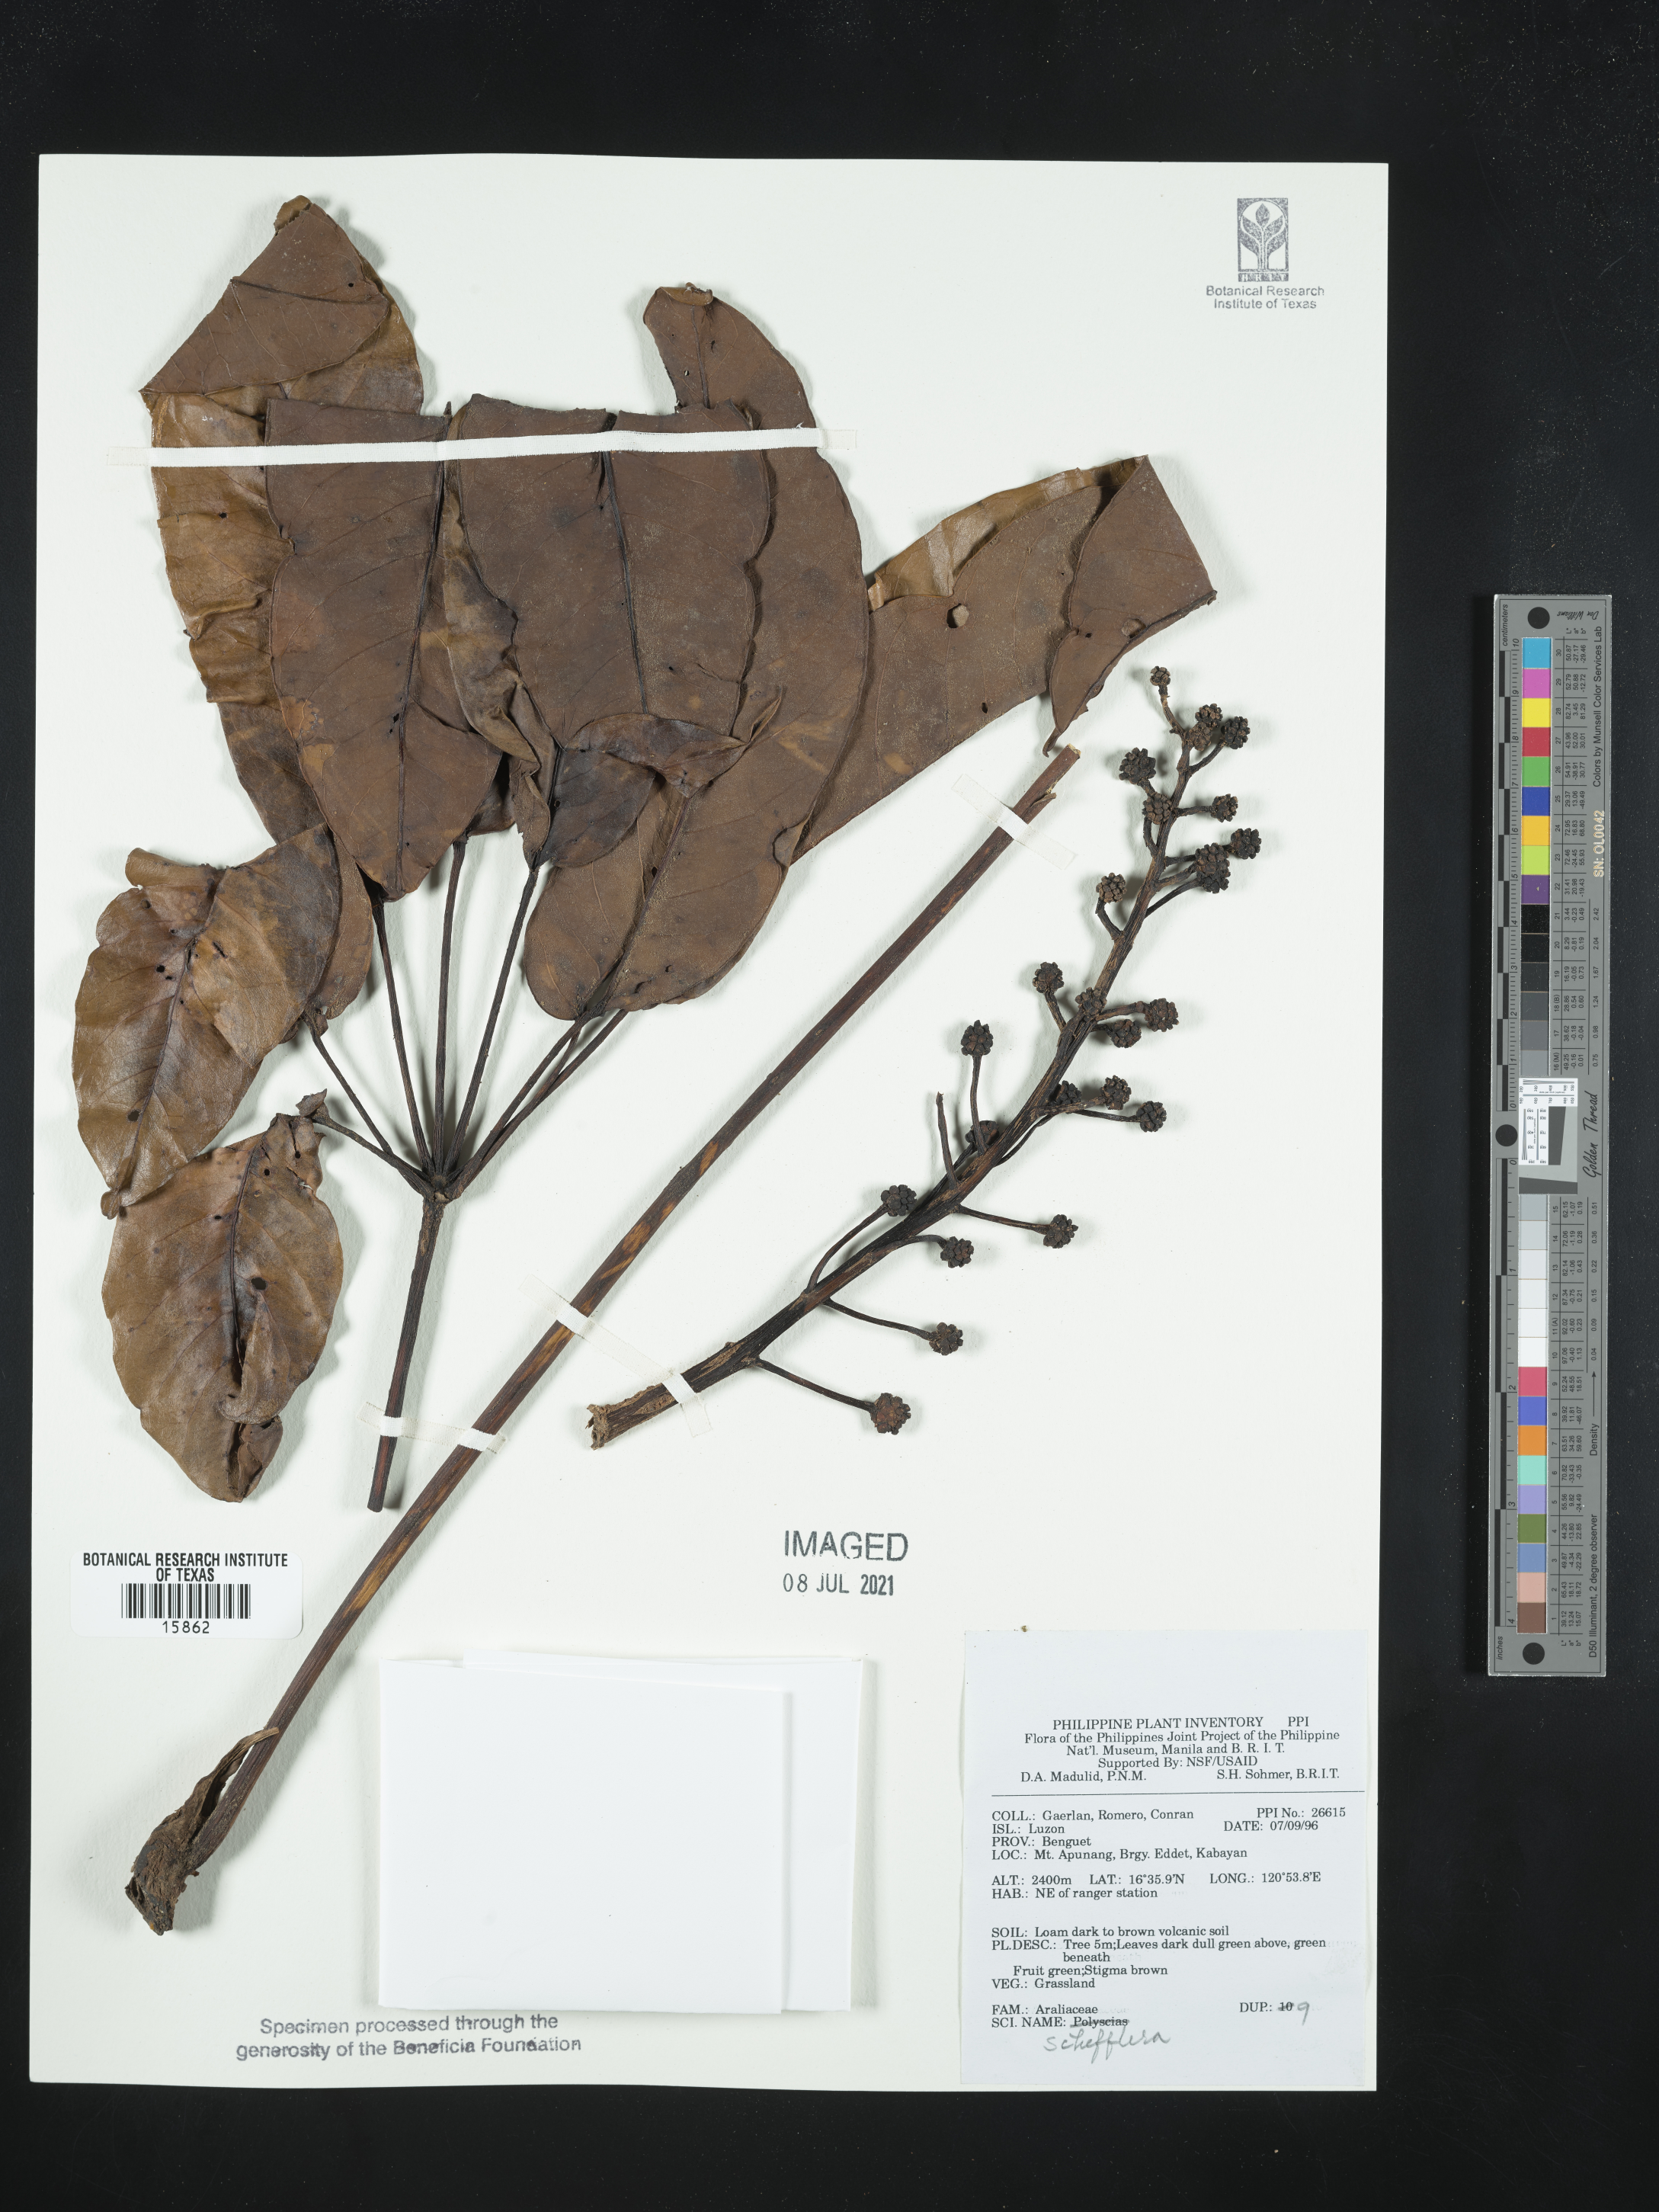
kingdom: Plantae
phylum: Tracheophyta
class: Magnoliopsida
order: Apiales
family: Araliaceae
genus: Schefflera
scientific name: Schefflera
